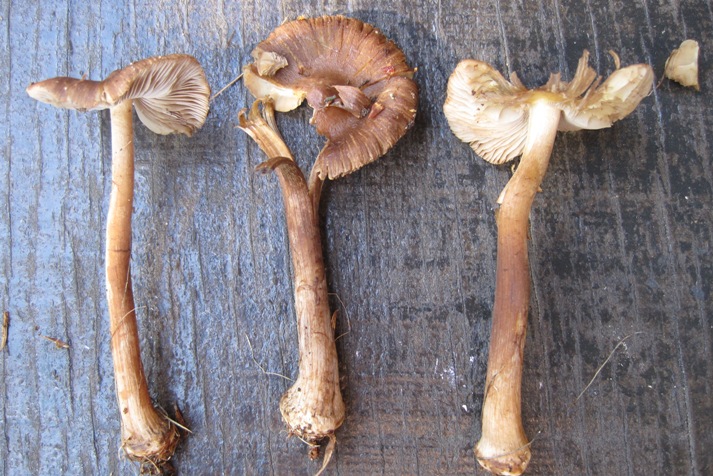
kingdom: Fungi
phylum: Basidiomycota
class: Agaricomycetes
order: Agaricales
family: Inocybaceae
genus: Inocybe
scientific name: Inocybe napipes
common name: roeknoldet trævlhat
